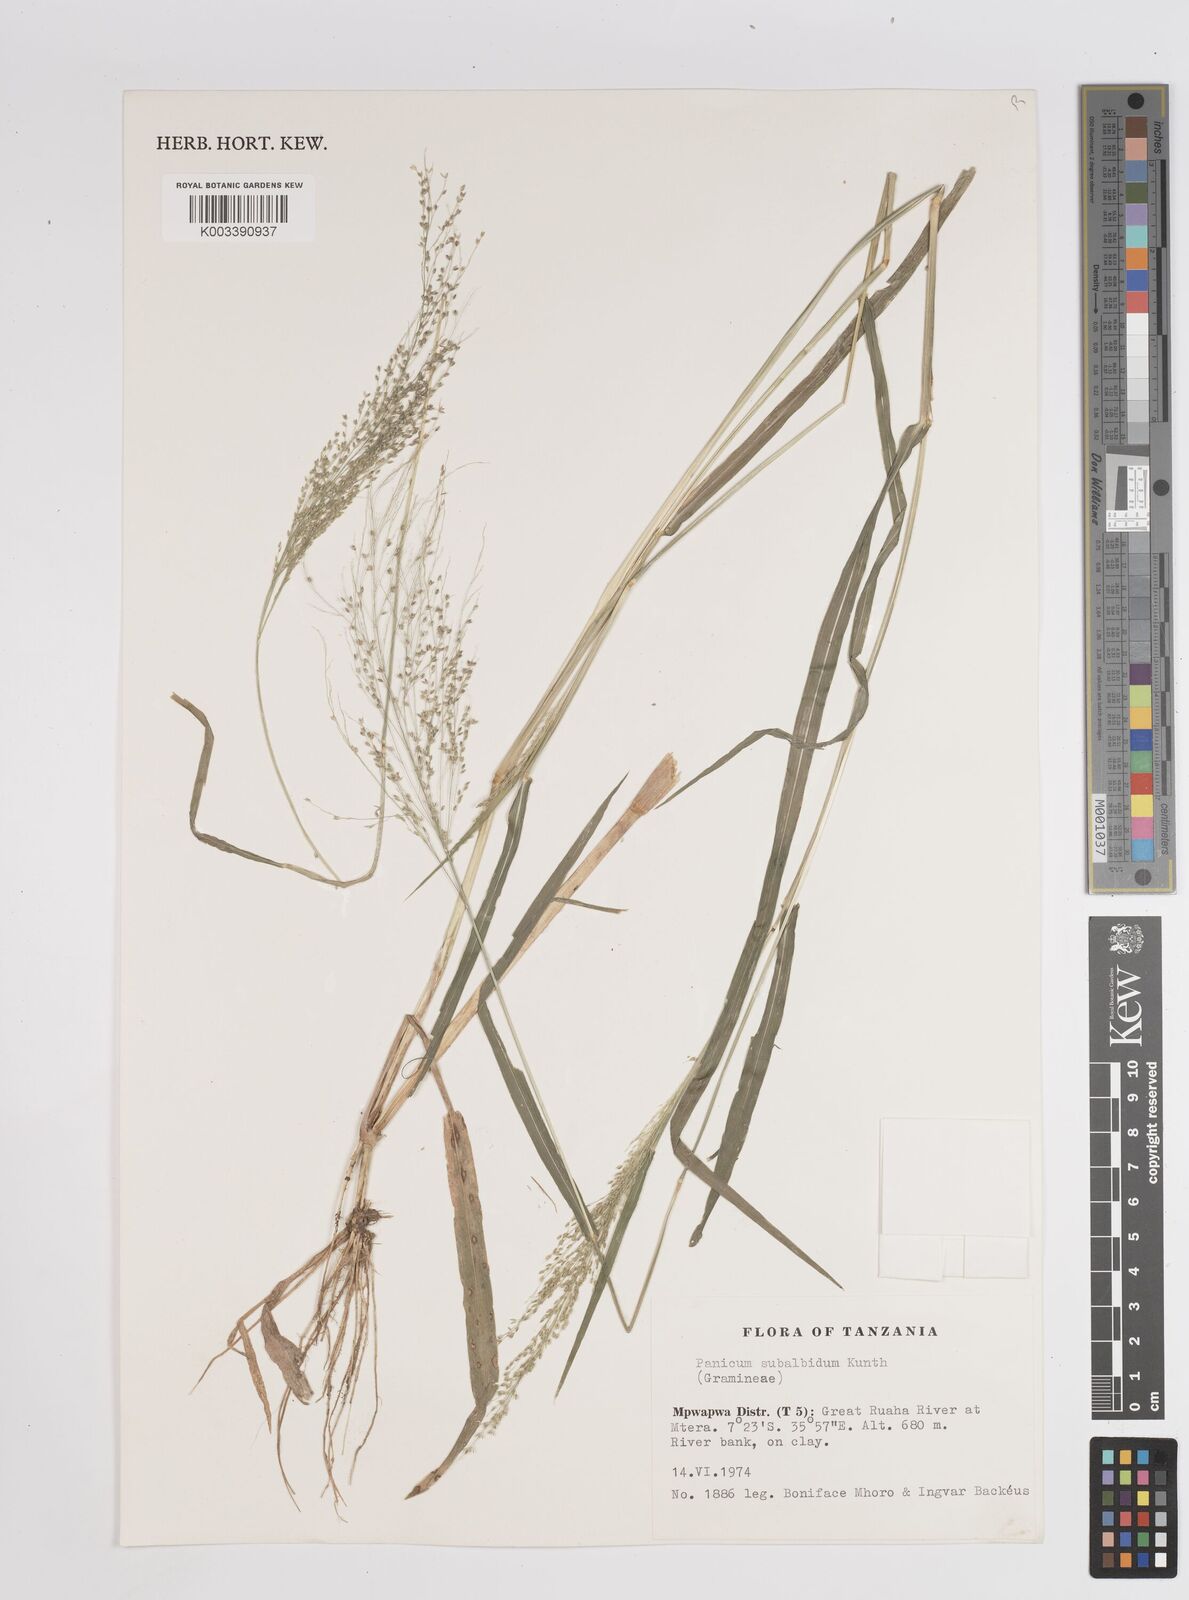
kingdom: Plantae
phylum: Tracheophyta
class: Liliopsida
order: Poales
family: Poaceae
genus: Panicum
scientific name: Panicum subalbidum
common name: Elbow buffalo grass
